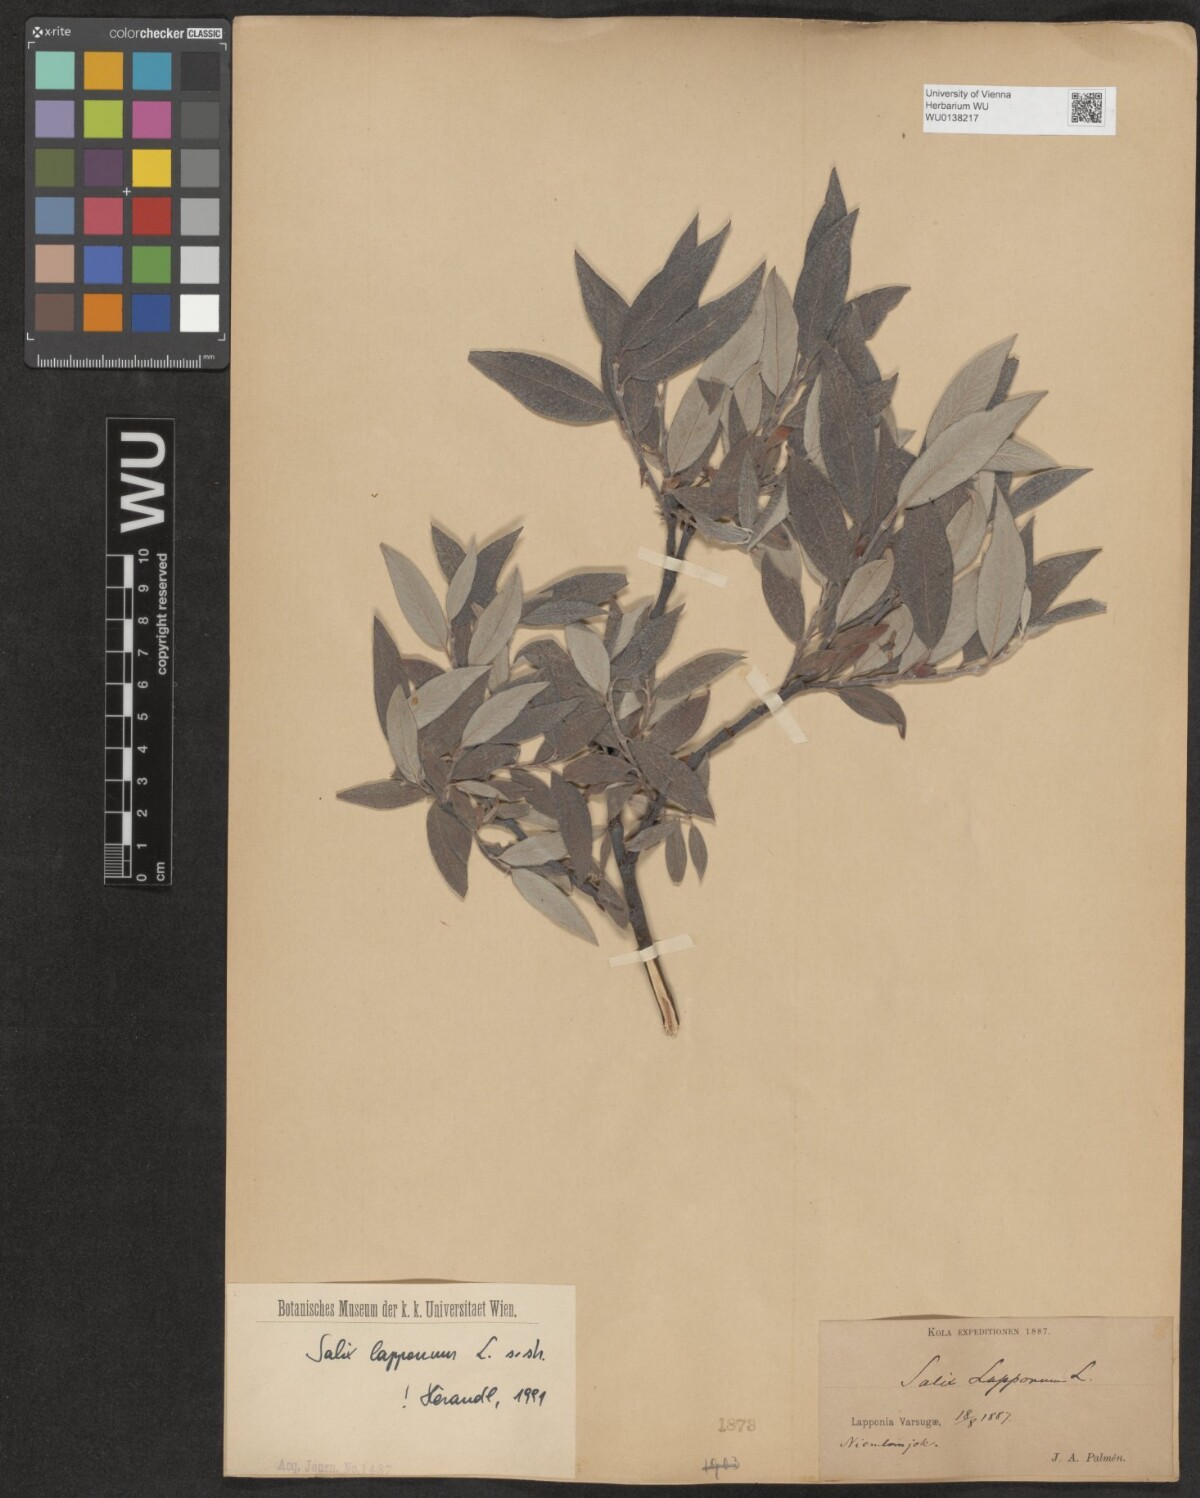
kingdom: Plantae
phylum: Tracheophyta
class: Magnoliopsida
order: Malpighiales
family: Salicaceae
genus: Salix
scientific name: Salix lapponum
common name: Downy willow
